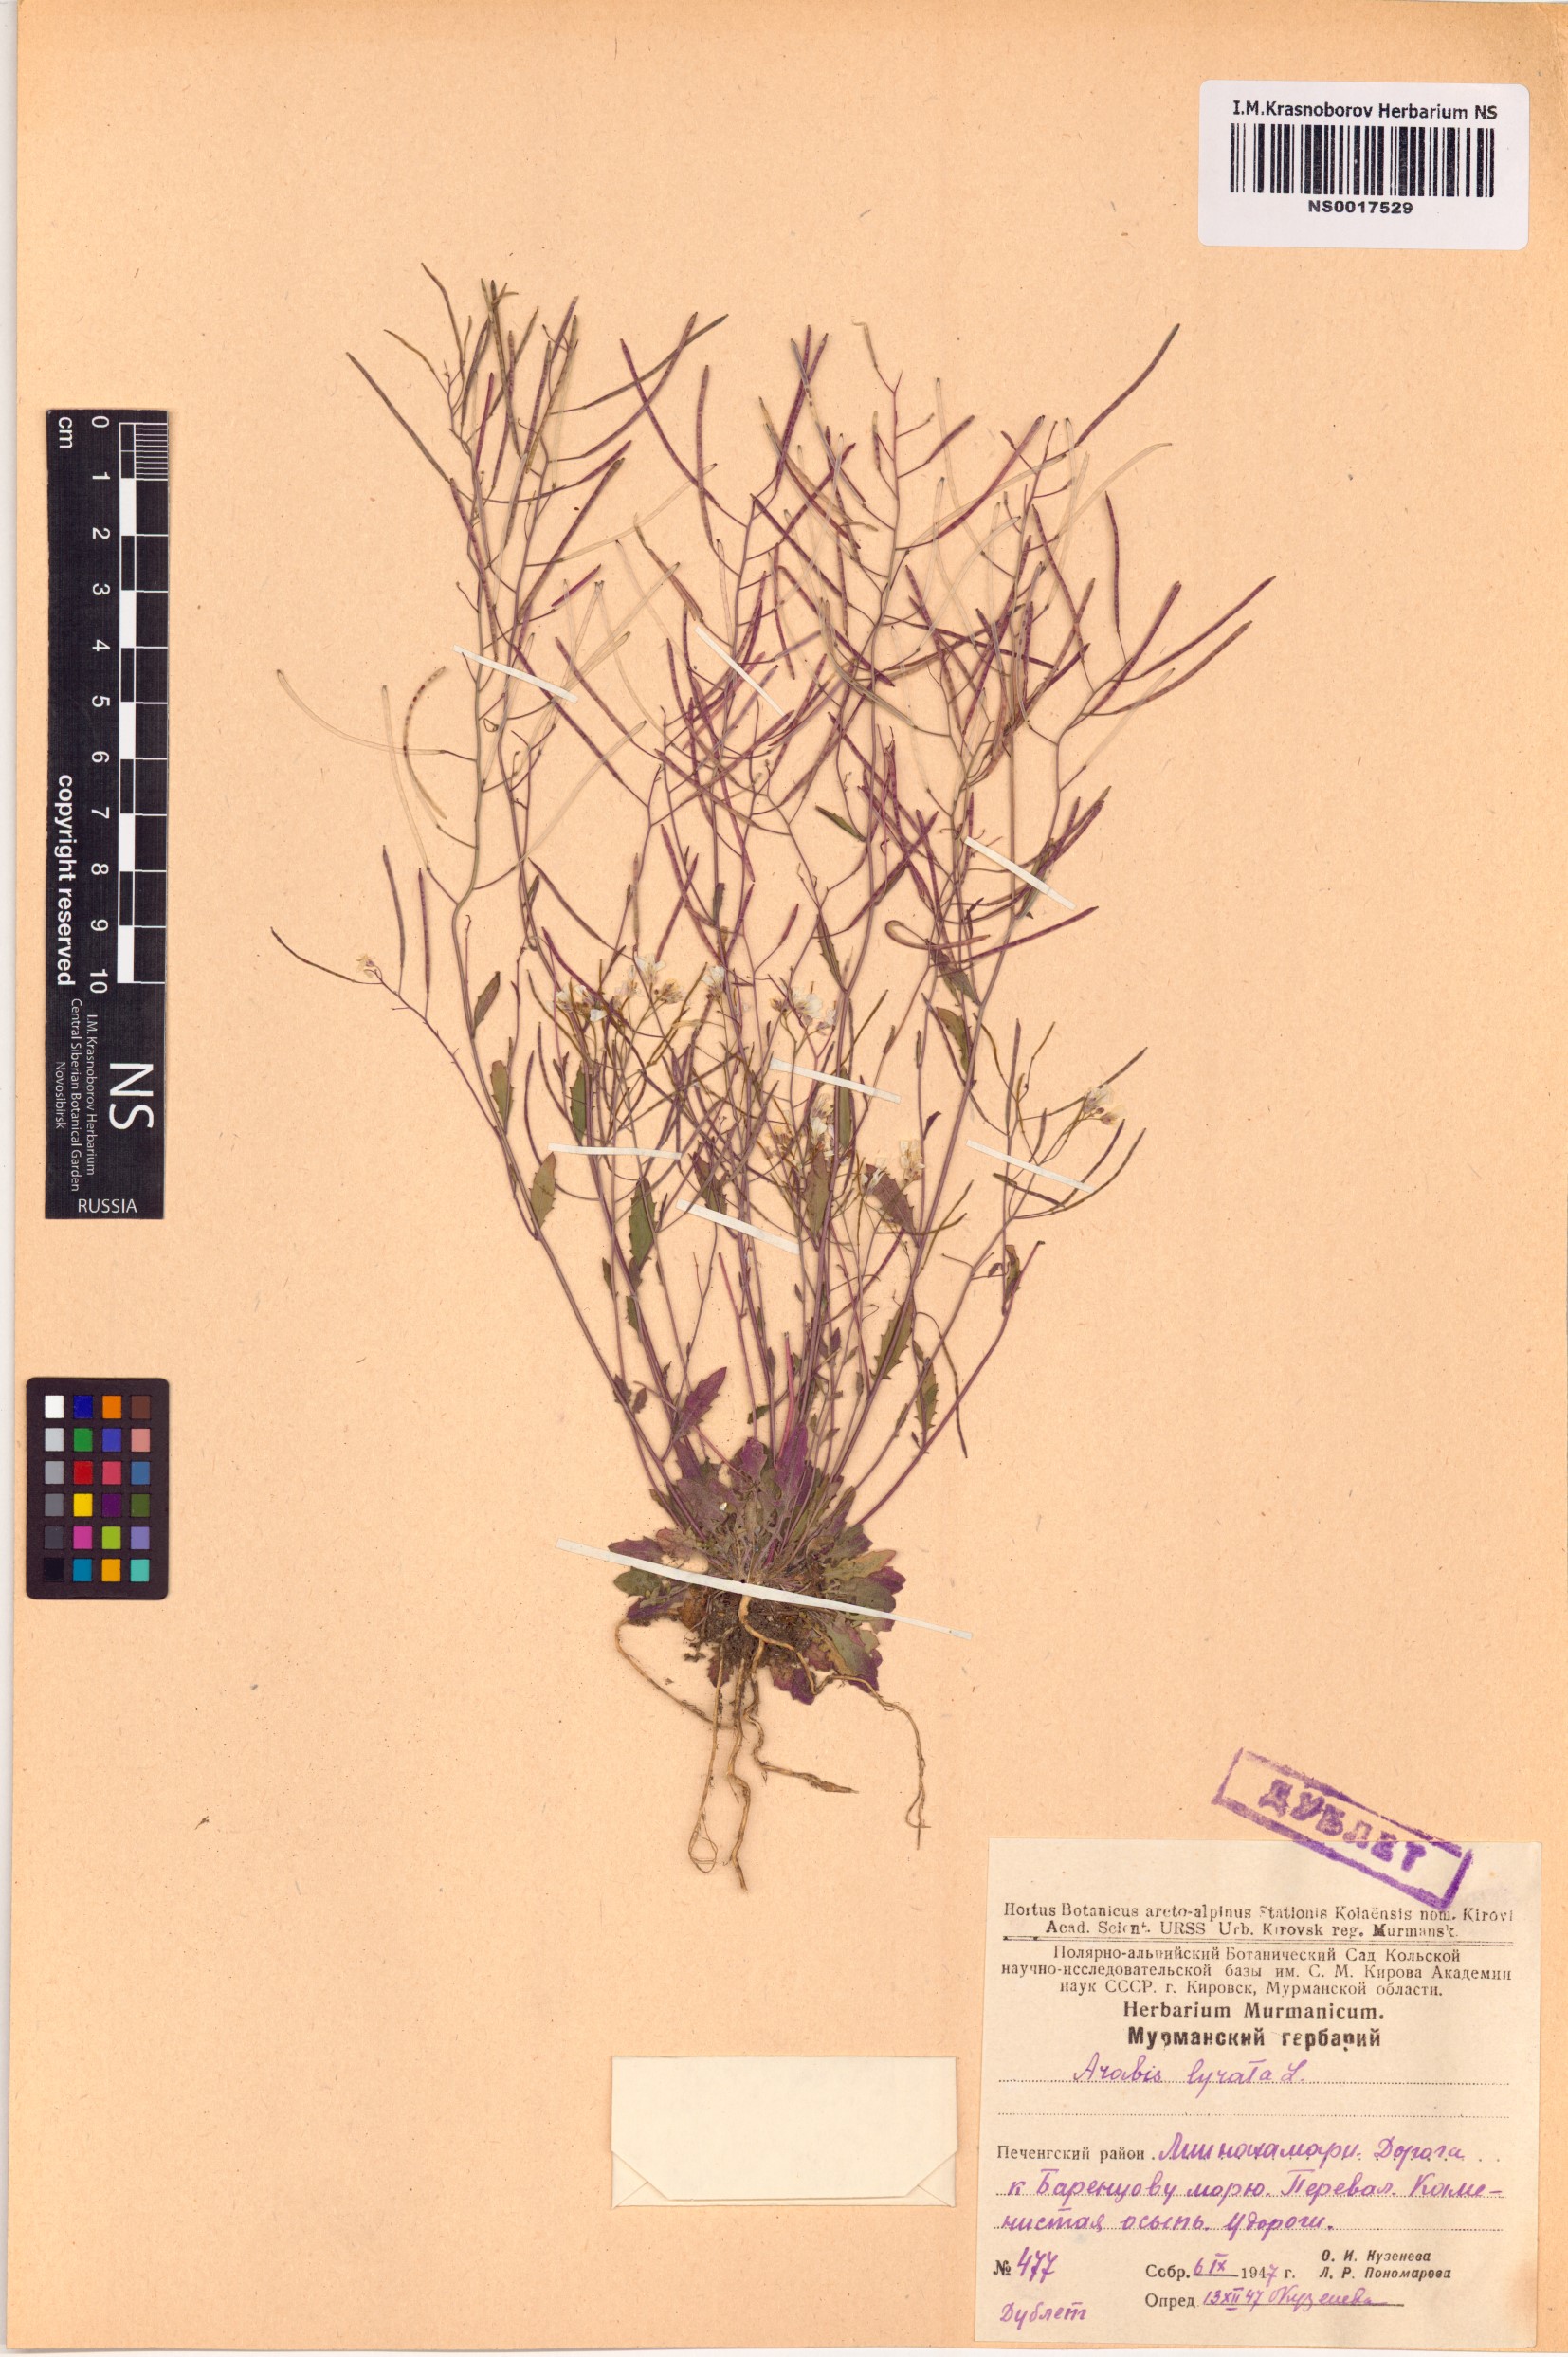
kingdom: Plantae
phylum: Tracheophyta
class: Magnoliopsida
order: Brassicales
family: Brassicaceae
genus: Arabidopsis
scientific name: Arabidopsis lyrata
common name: Lyrate rockcress
